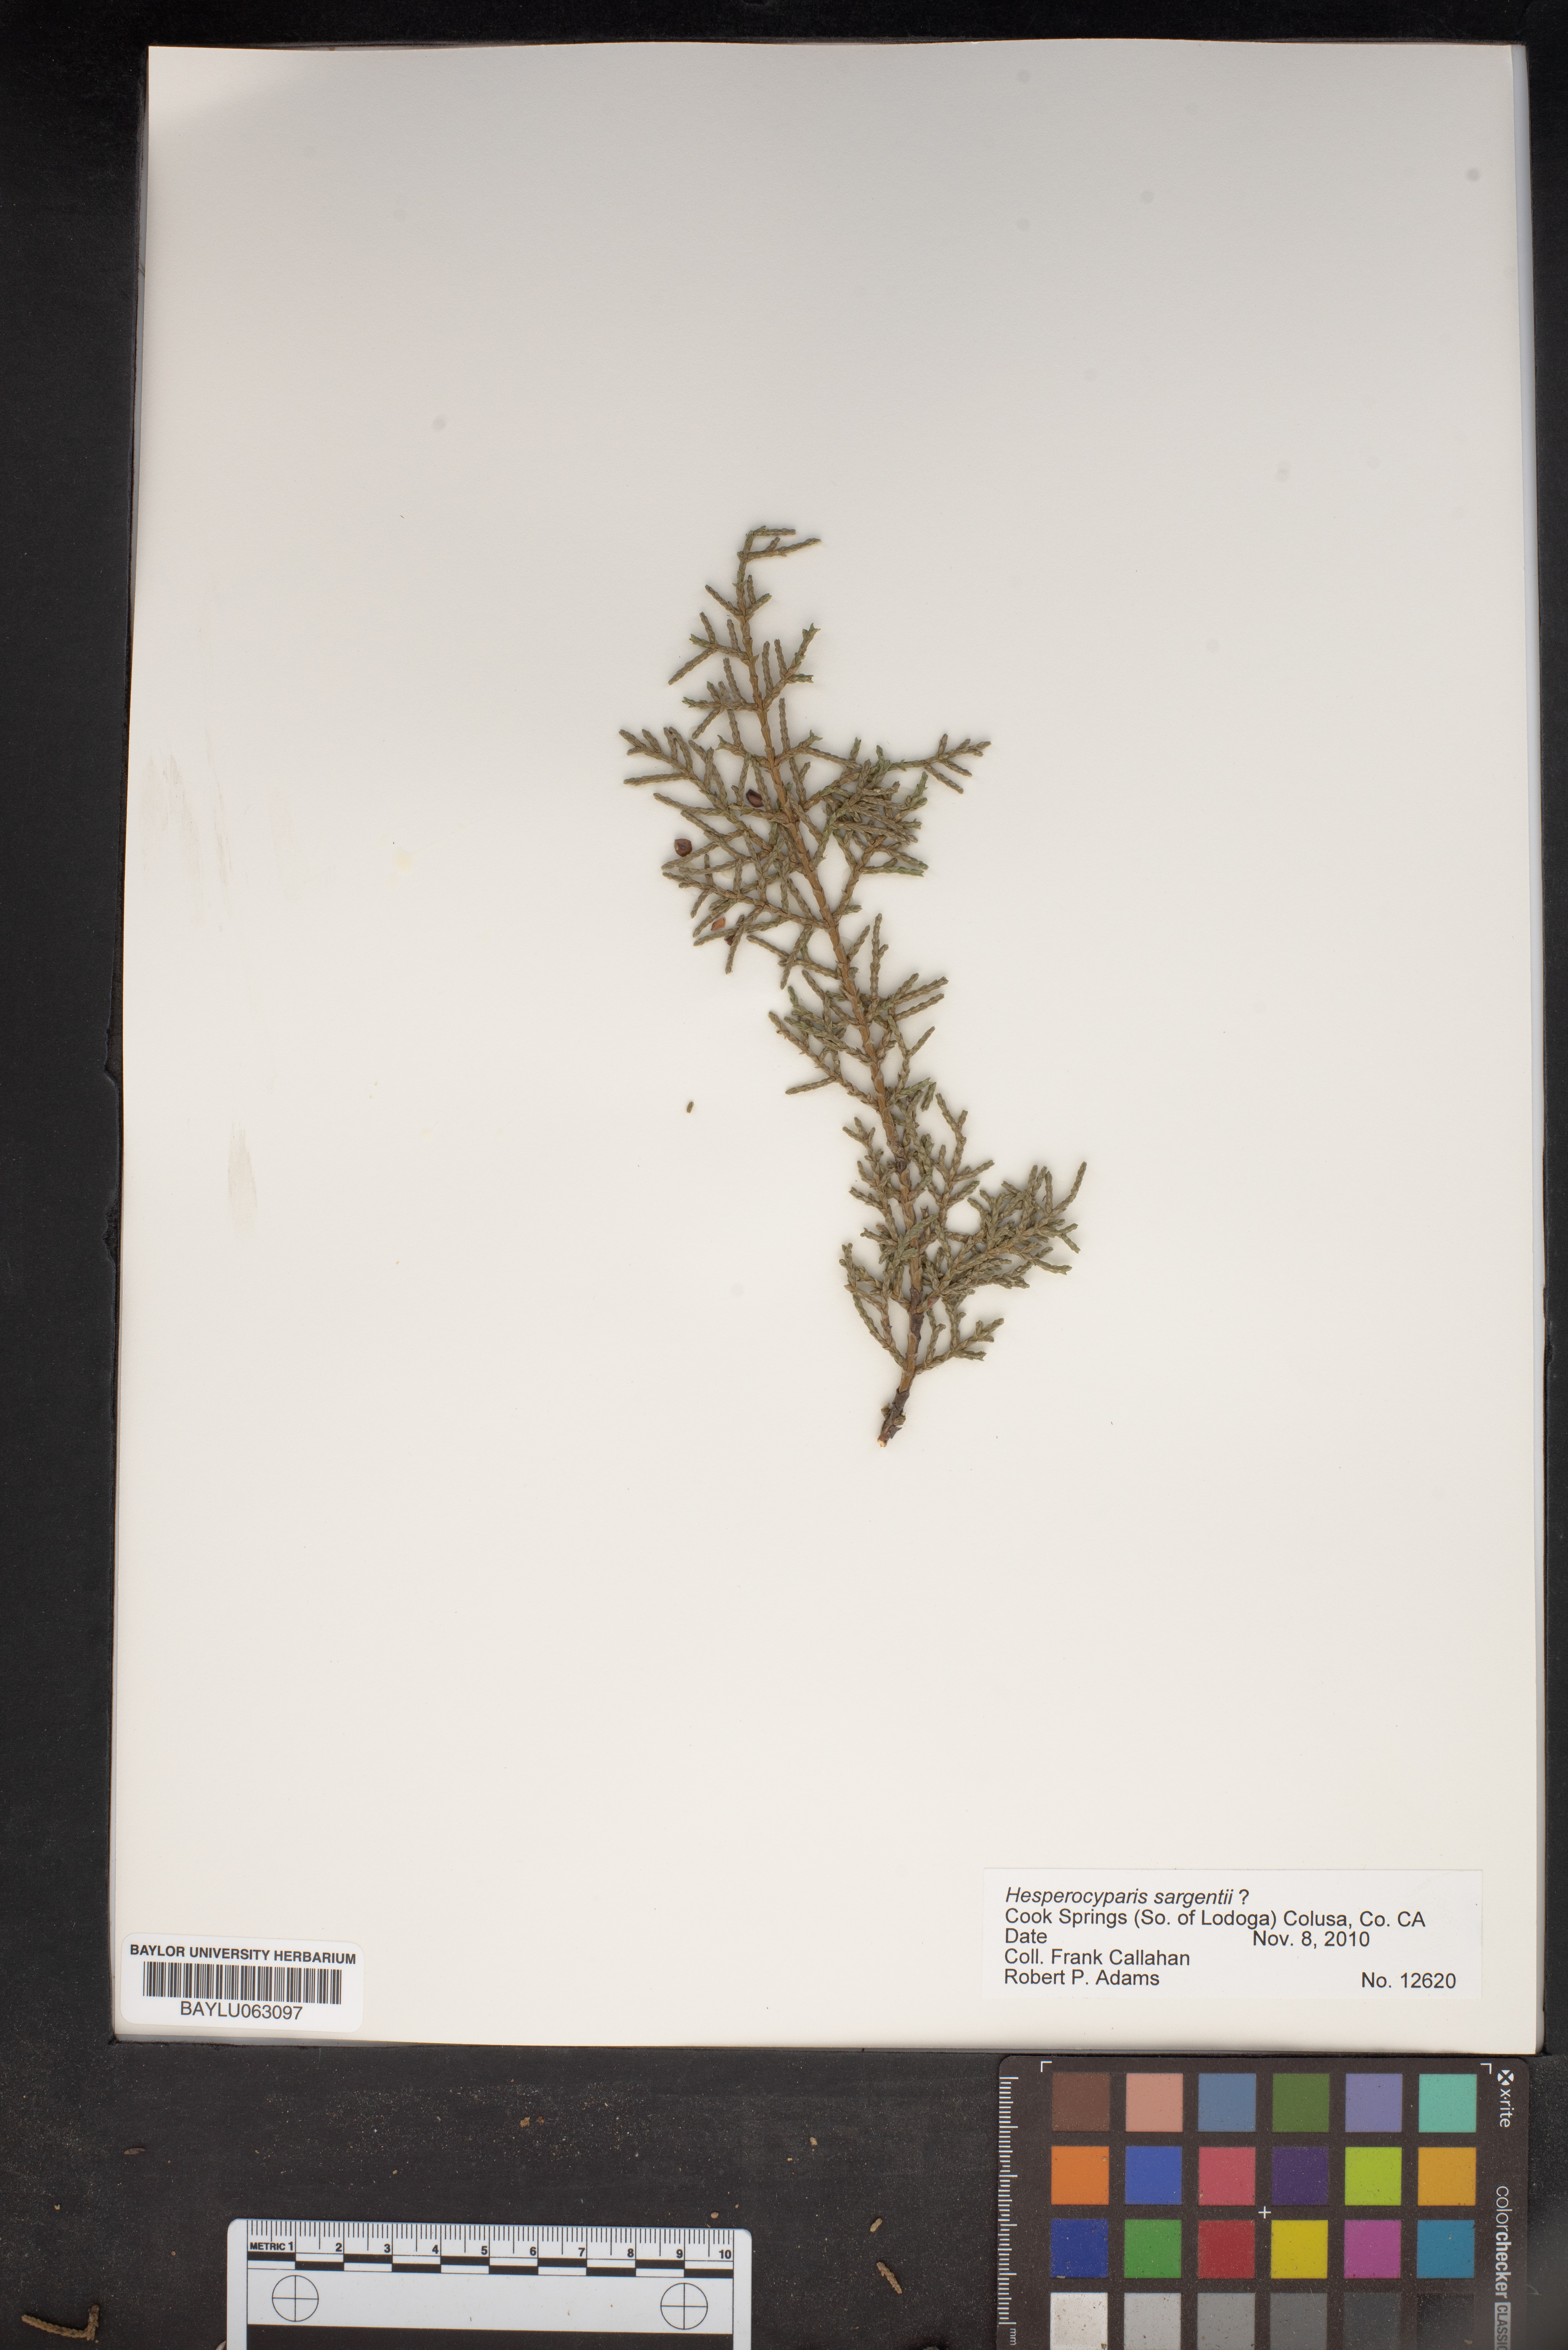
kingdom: Plantae
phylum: Tracheophyta
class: Pinopsida
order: Pinales
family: Cupressaceae
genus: Cupressus
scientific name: Cupressus sargentii
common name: Sargent cypress
